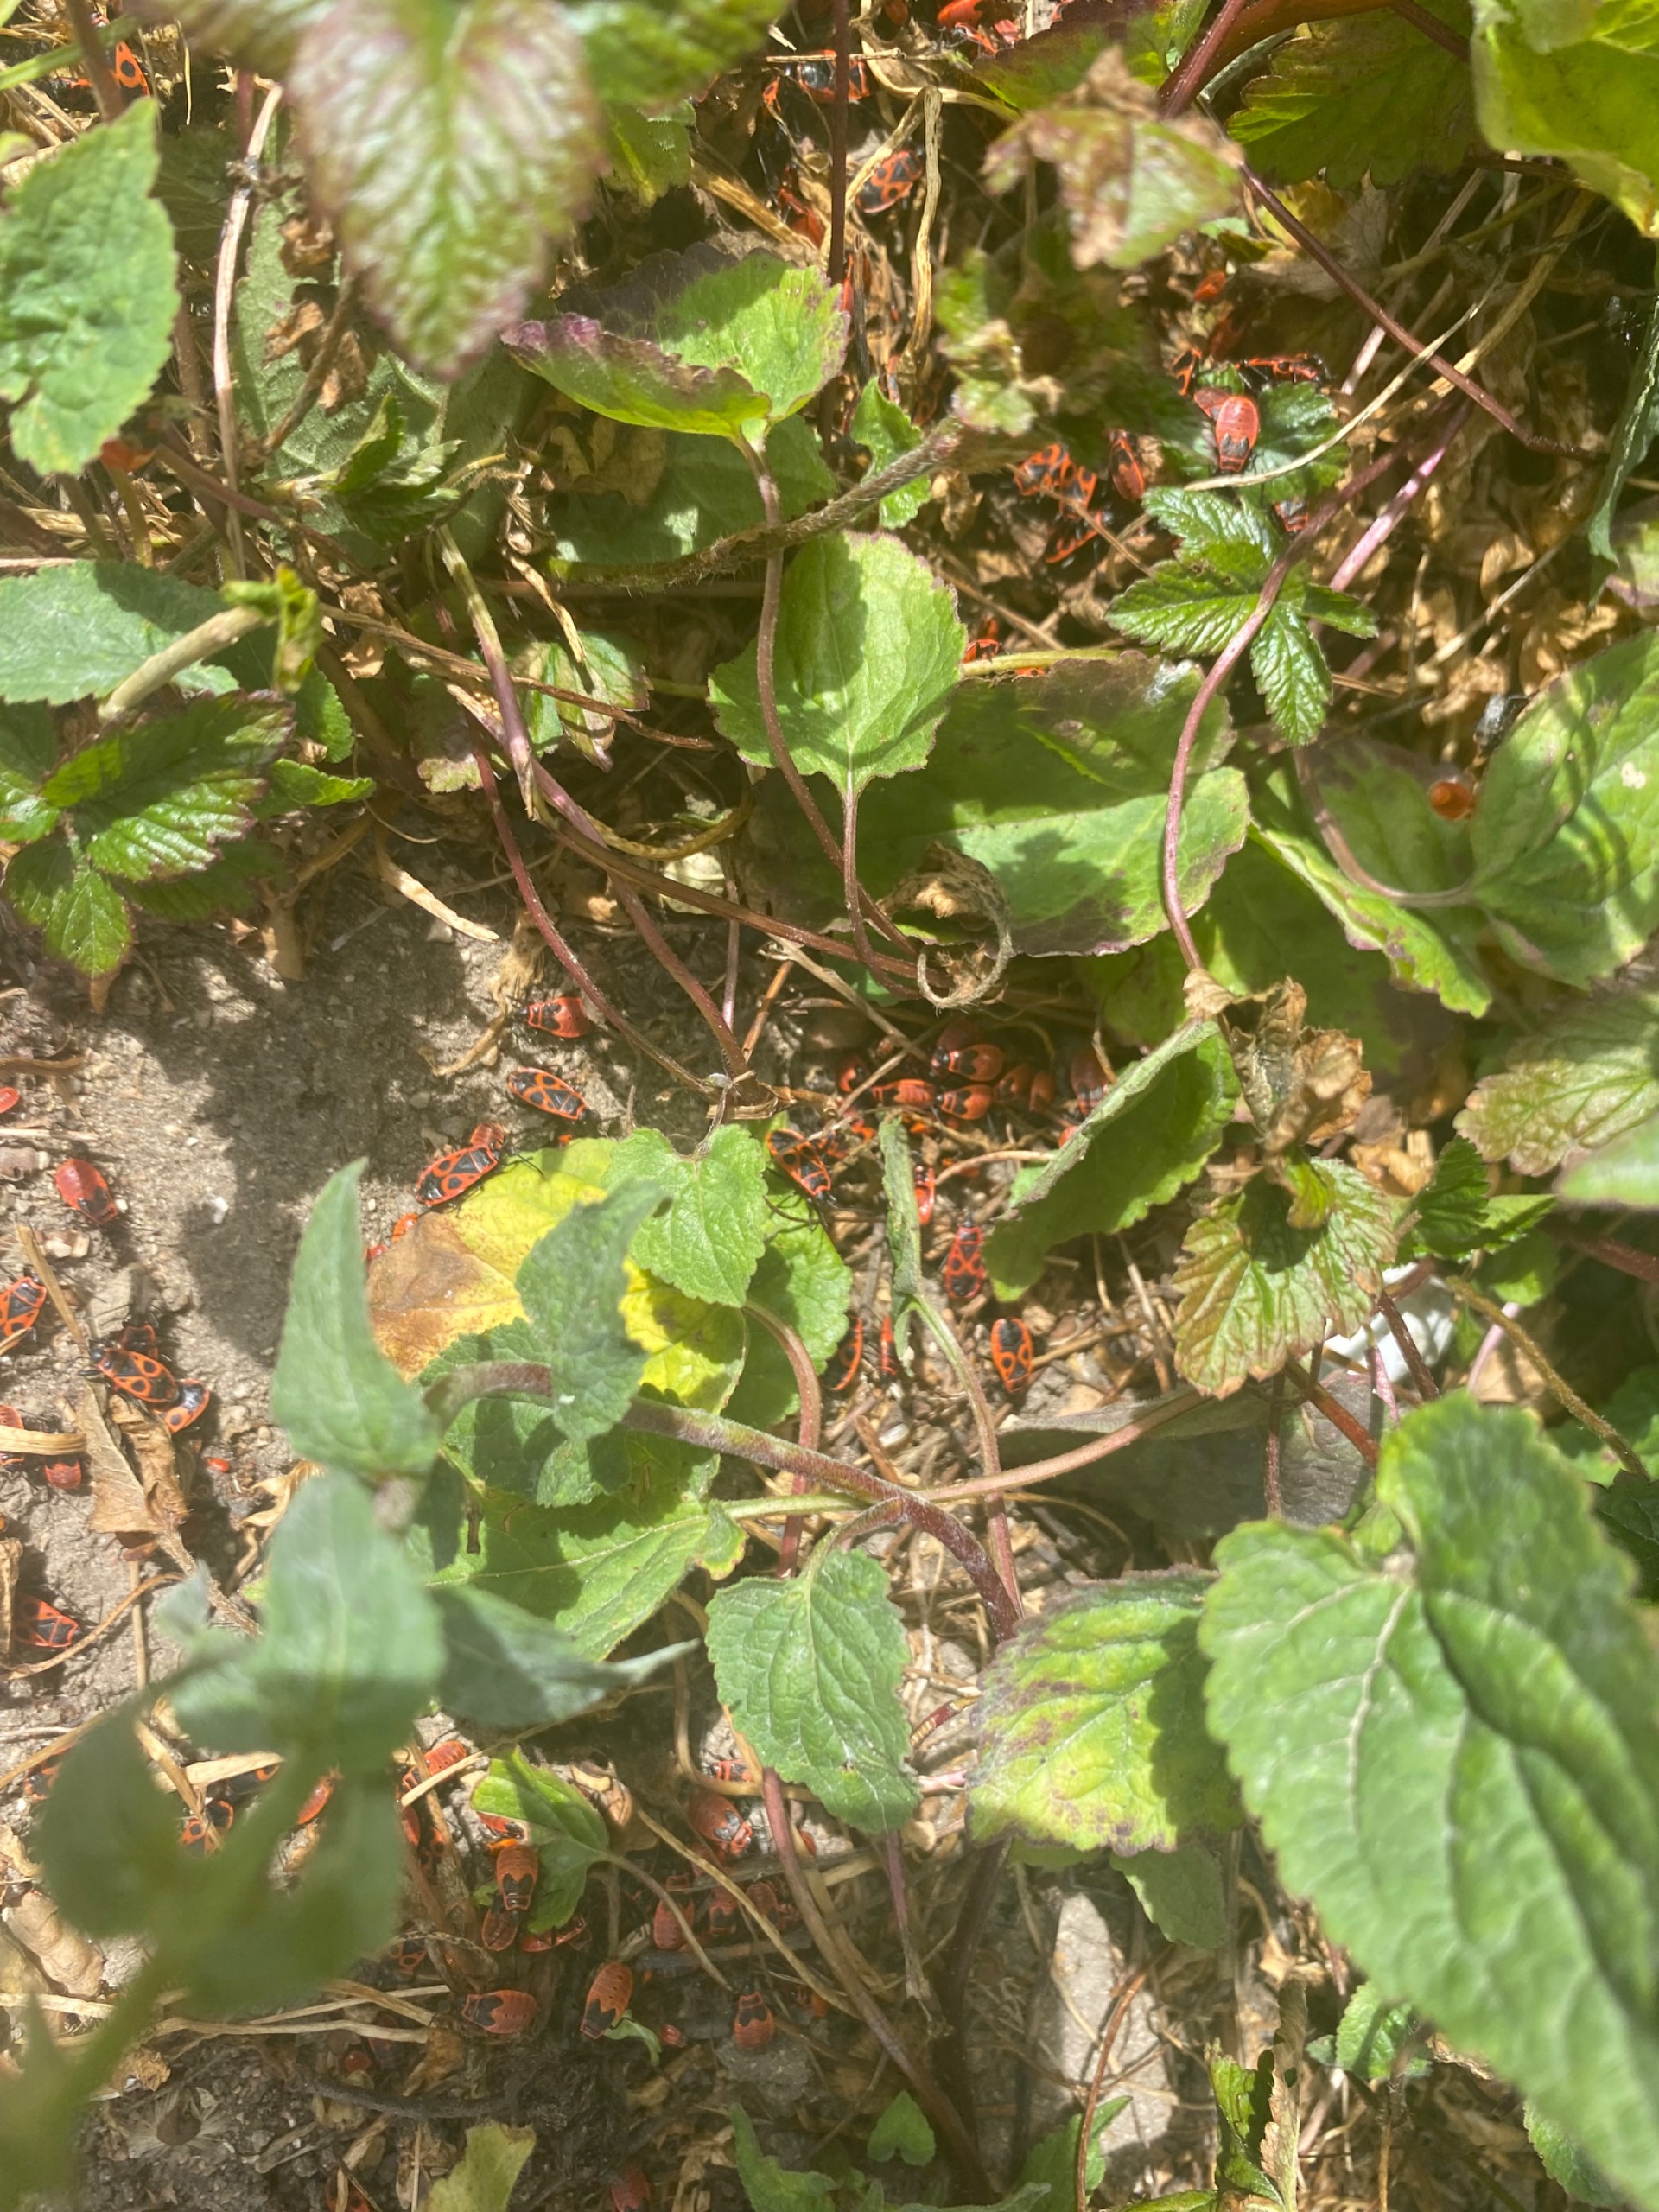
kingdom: Animalia
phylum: Arthropoda
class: Insecta
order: Hemiptera
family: Pyrrhocoridae
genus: Pyrrhocoris
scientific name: Pyrrhocoris apterus
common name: Ildtæge
